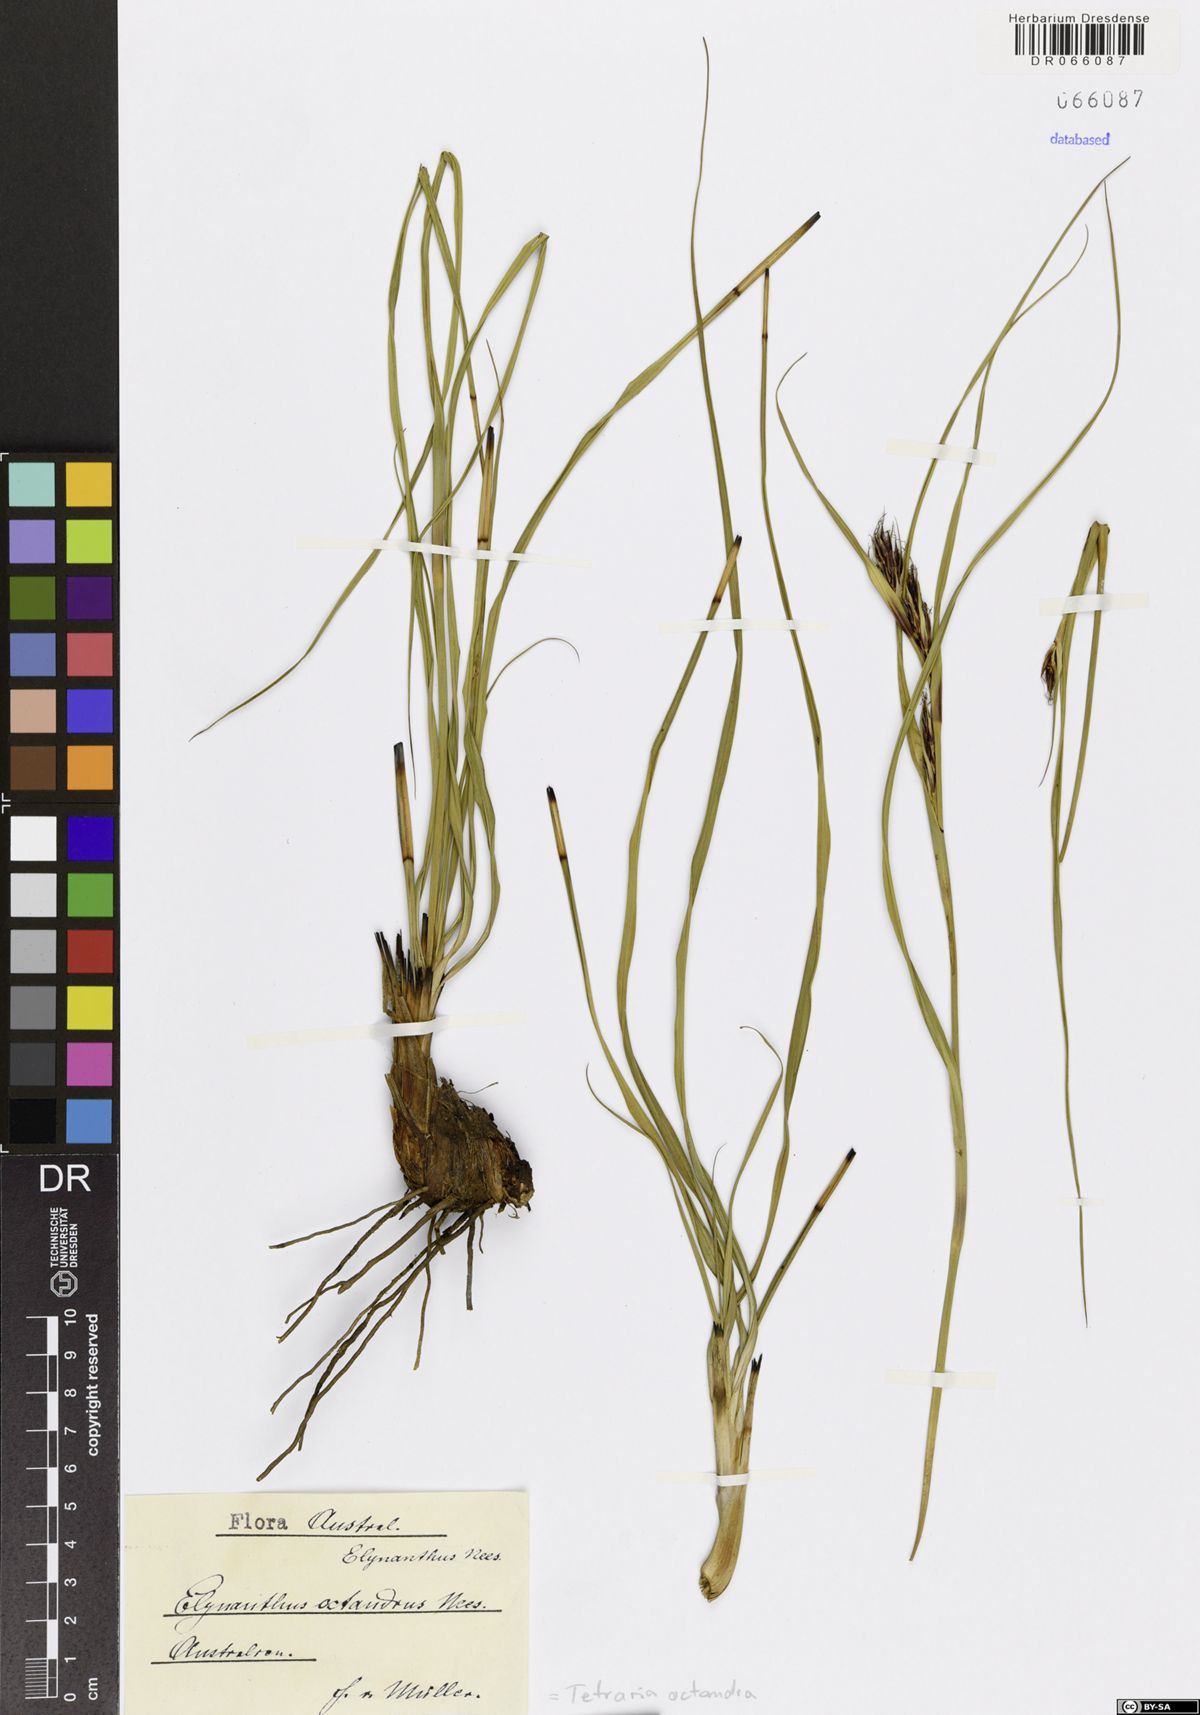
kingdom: Plantae
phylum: Tracheophyta
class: Liliopsida
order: Poales
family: Cyperaceae
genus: Tetraria
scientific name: Tetraria octandra
